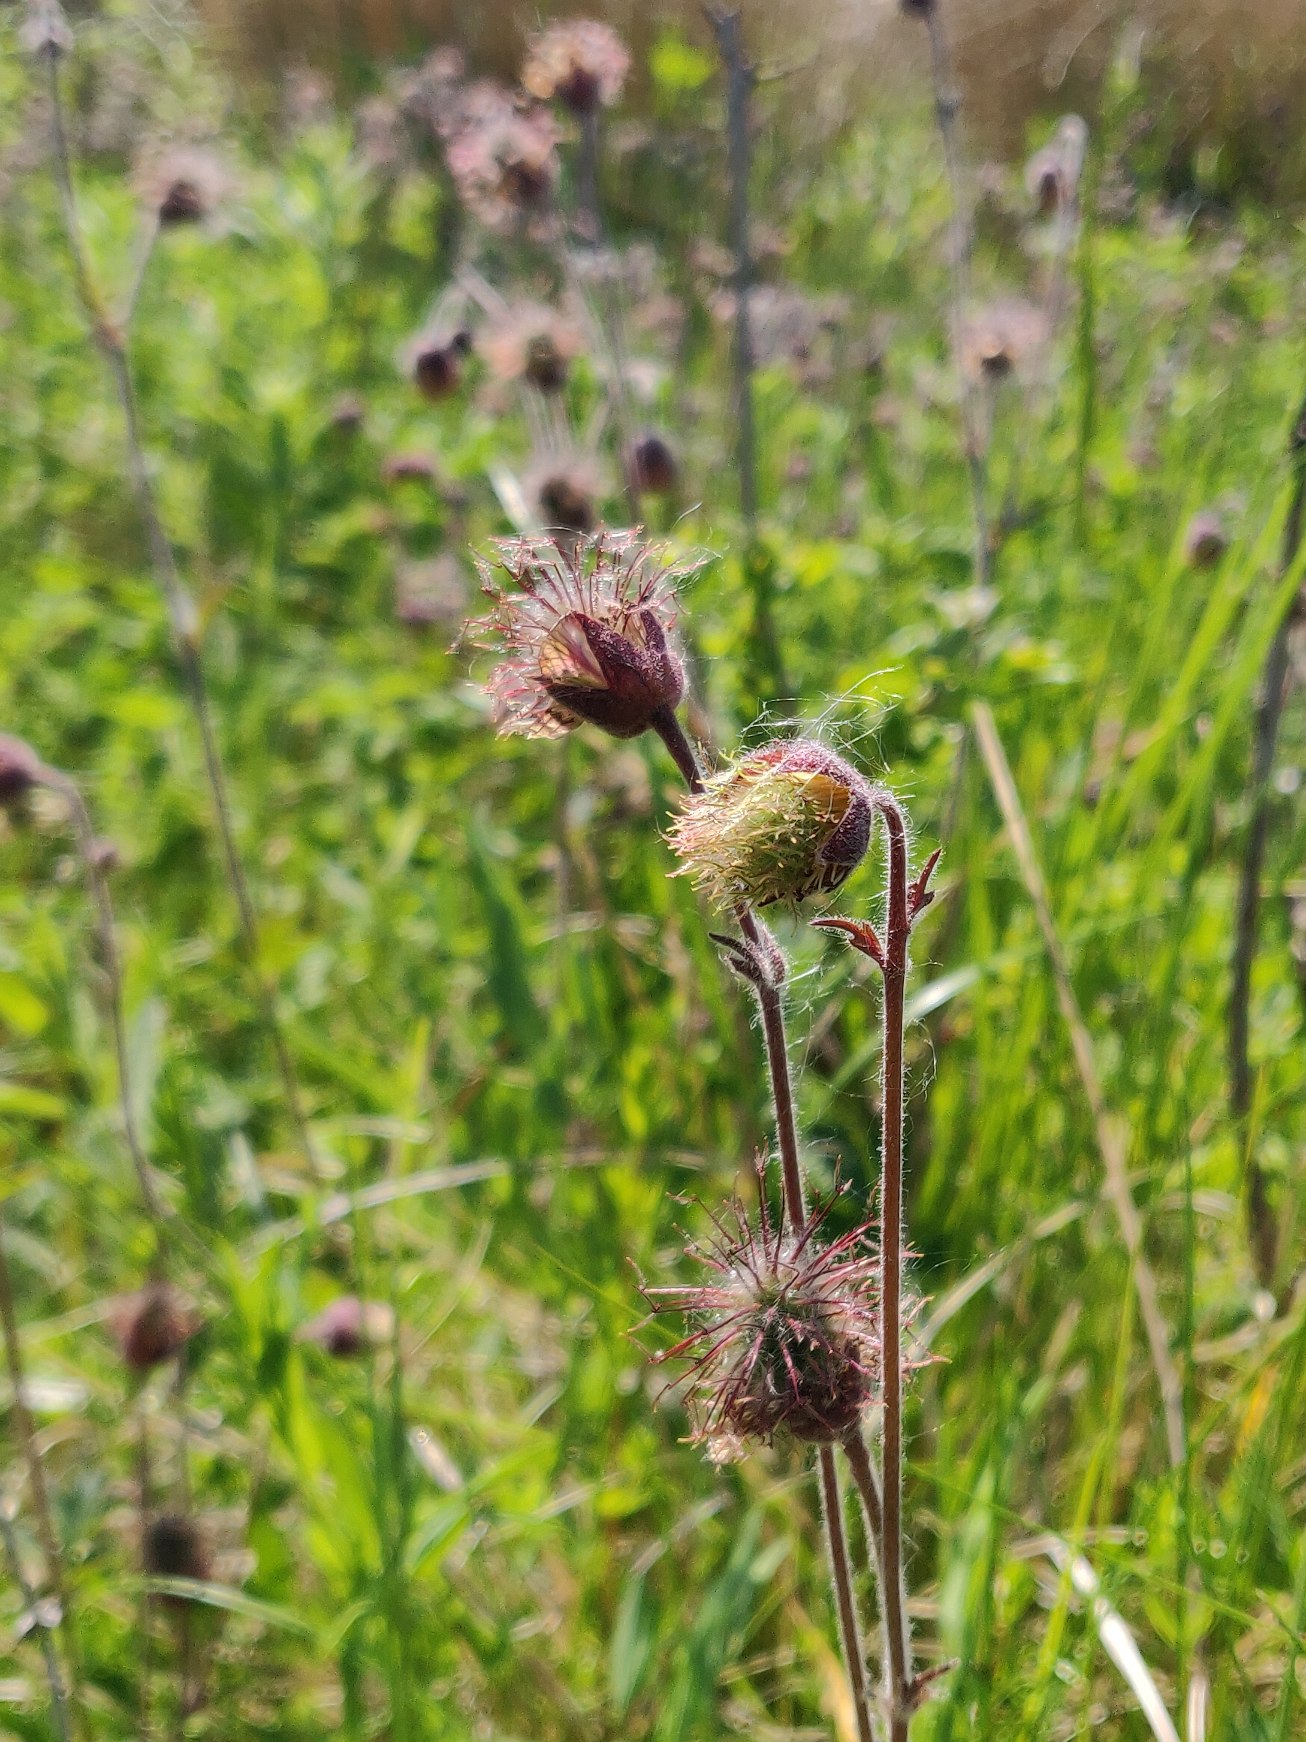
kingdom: Plantae
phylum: Tracheophyta
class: Magnoliopsida
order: Rosales
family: Rosaceae
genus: Geum
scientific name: Geum rivale
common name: Eng-nellikerod
